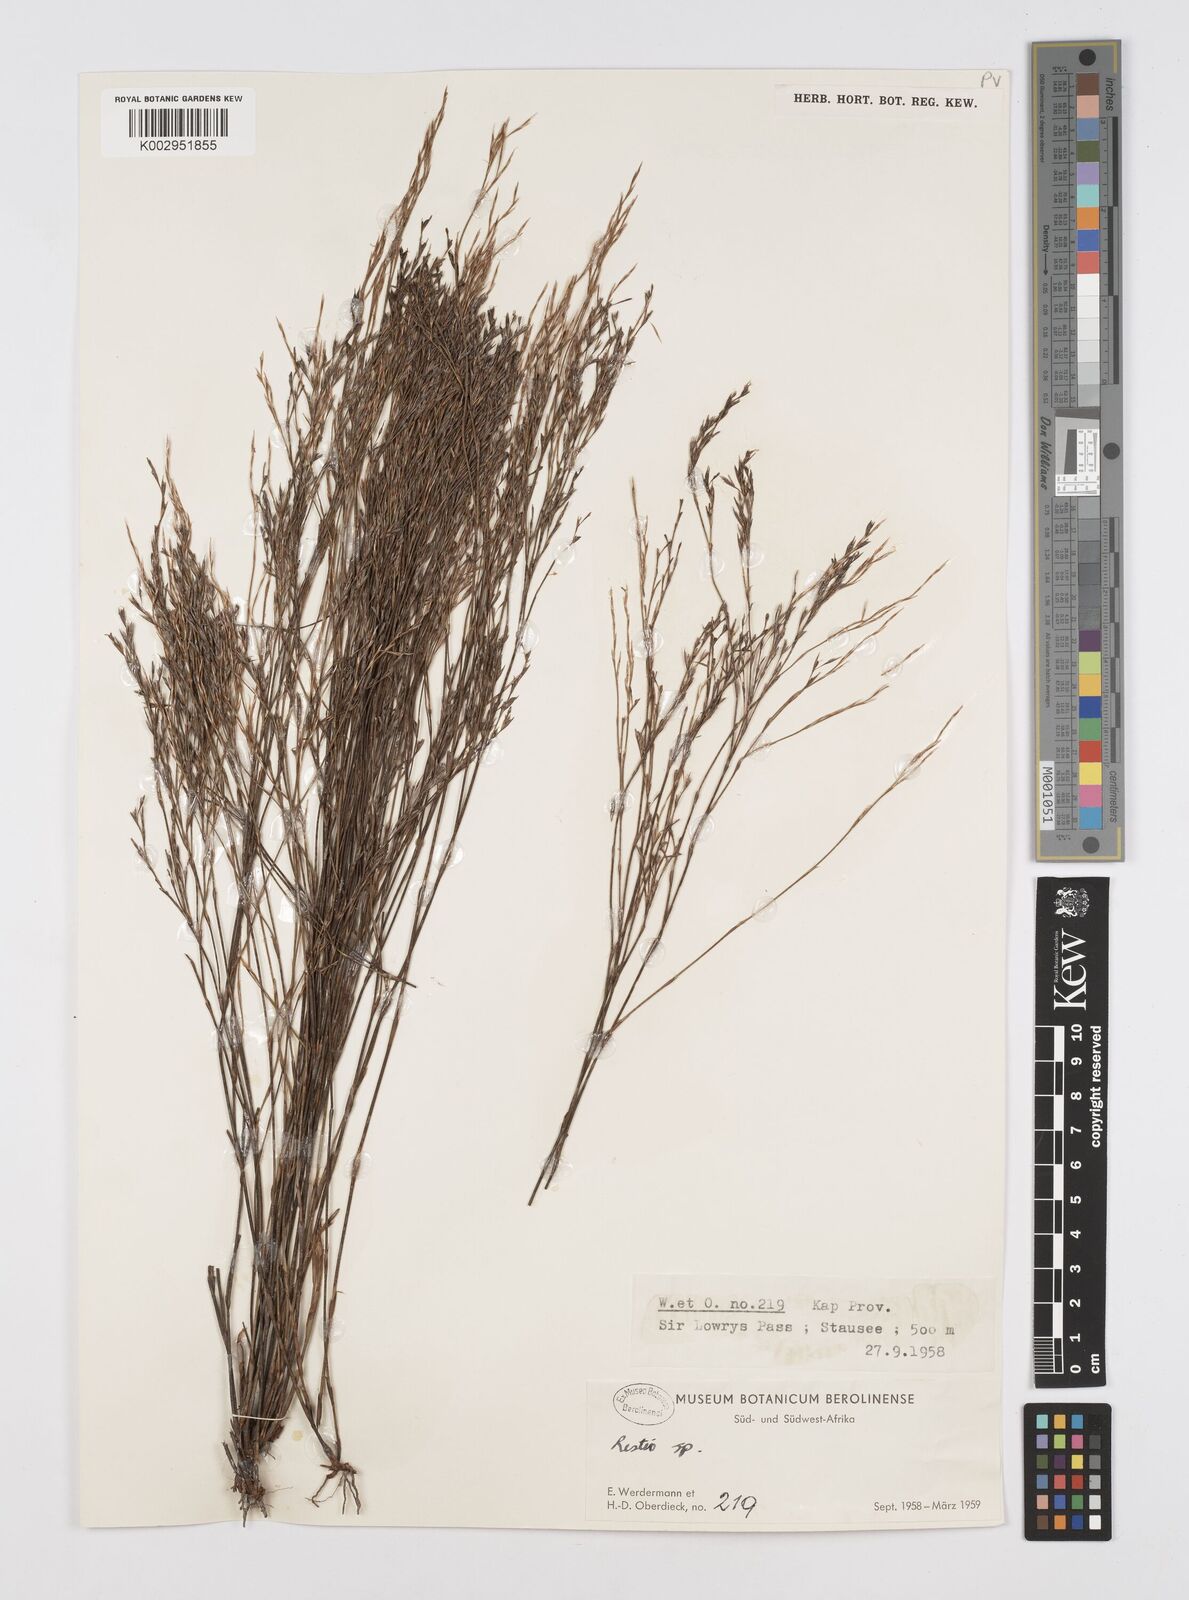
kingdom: Plantae
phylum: Tracheophyta
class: Liliopsida
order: Poales
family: Restionaceae
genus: Restio
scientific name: Restio
